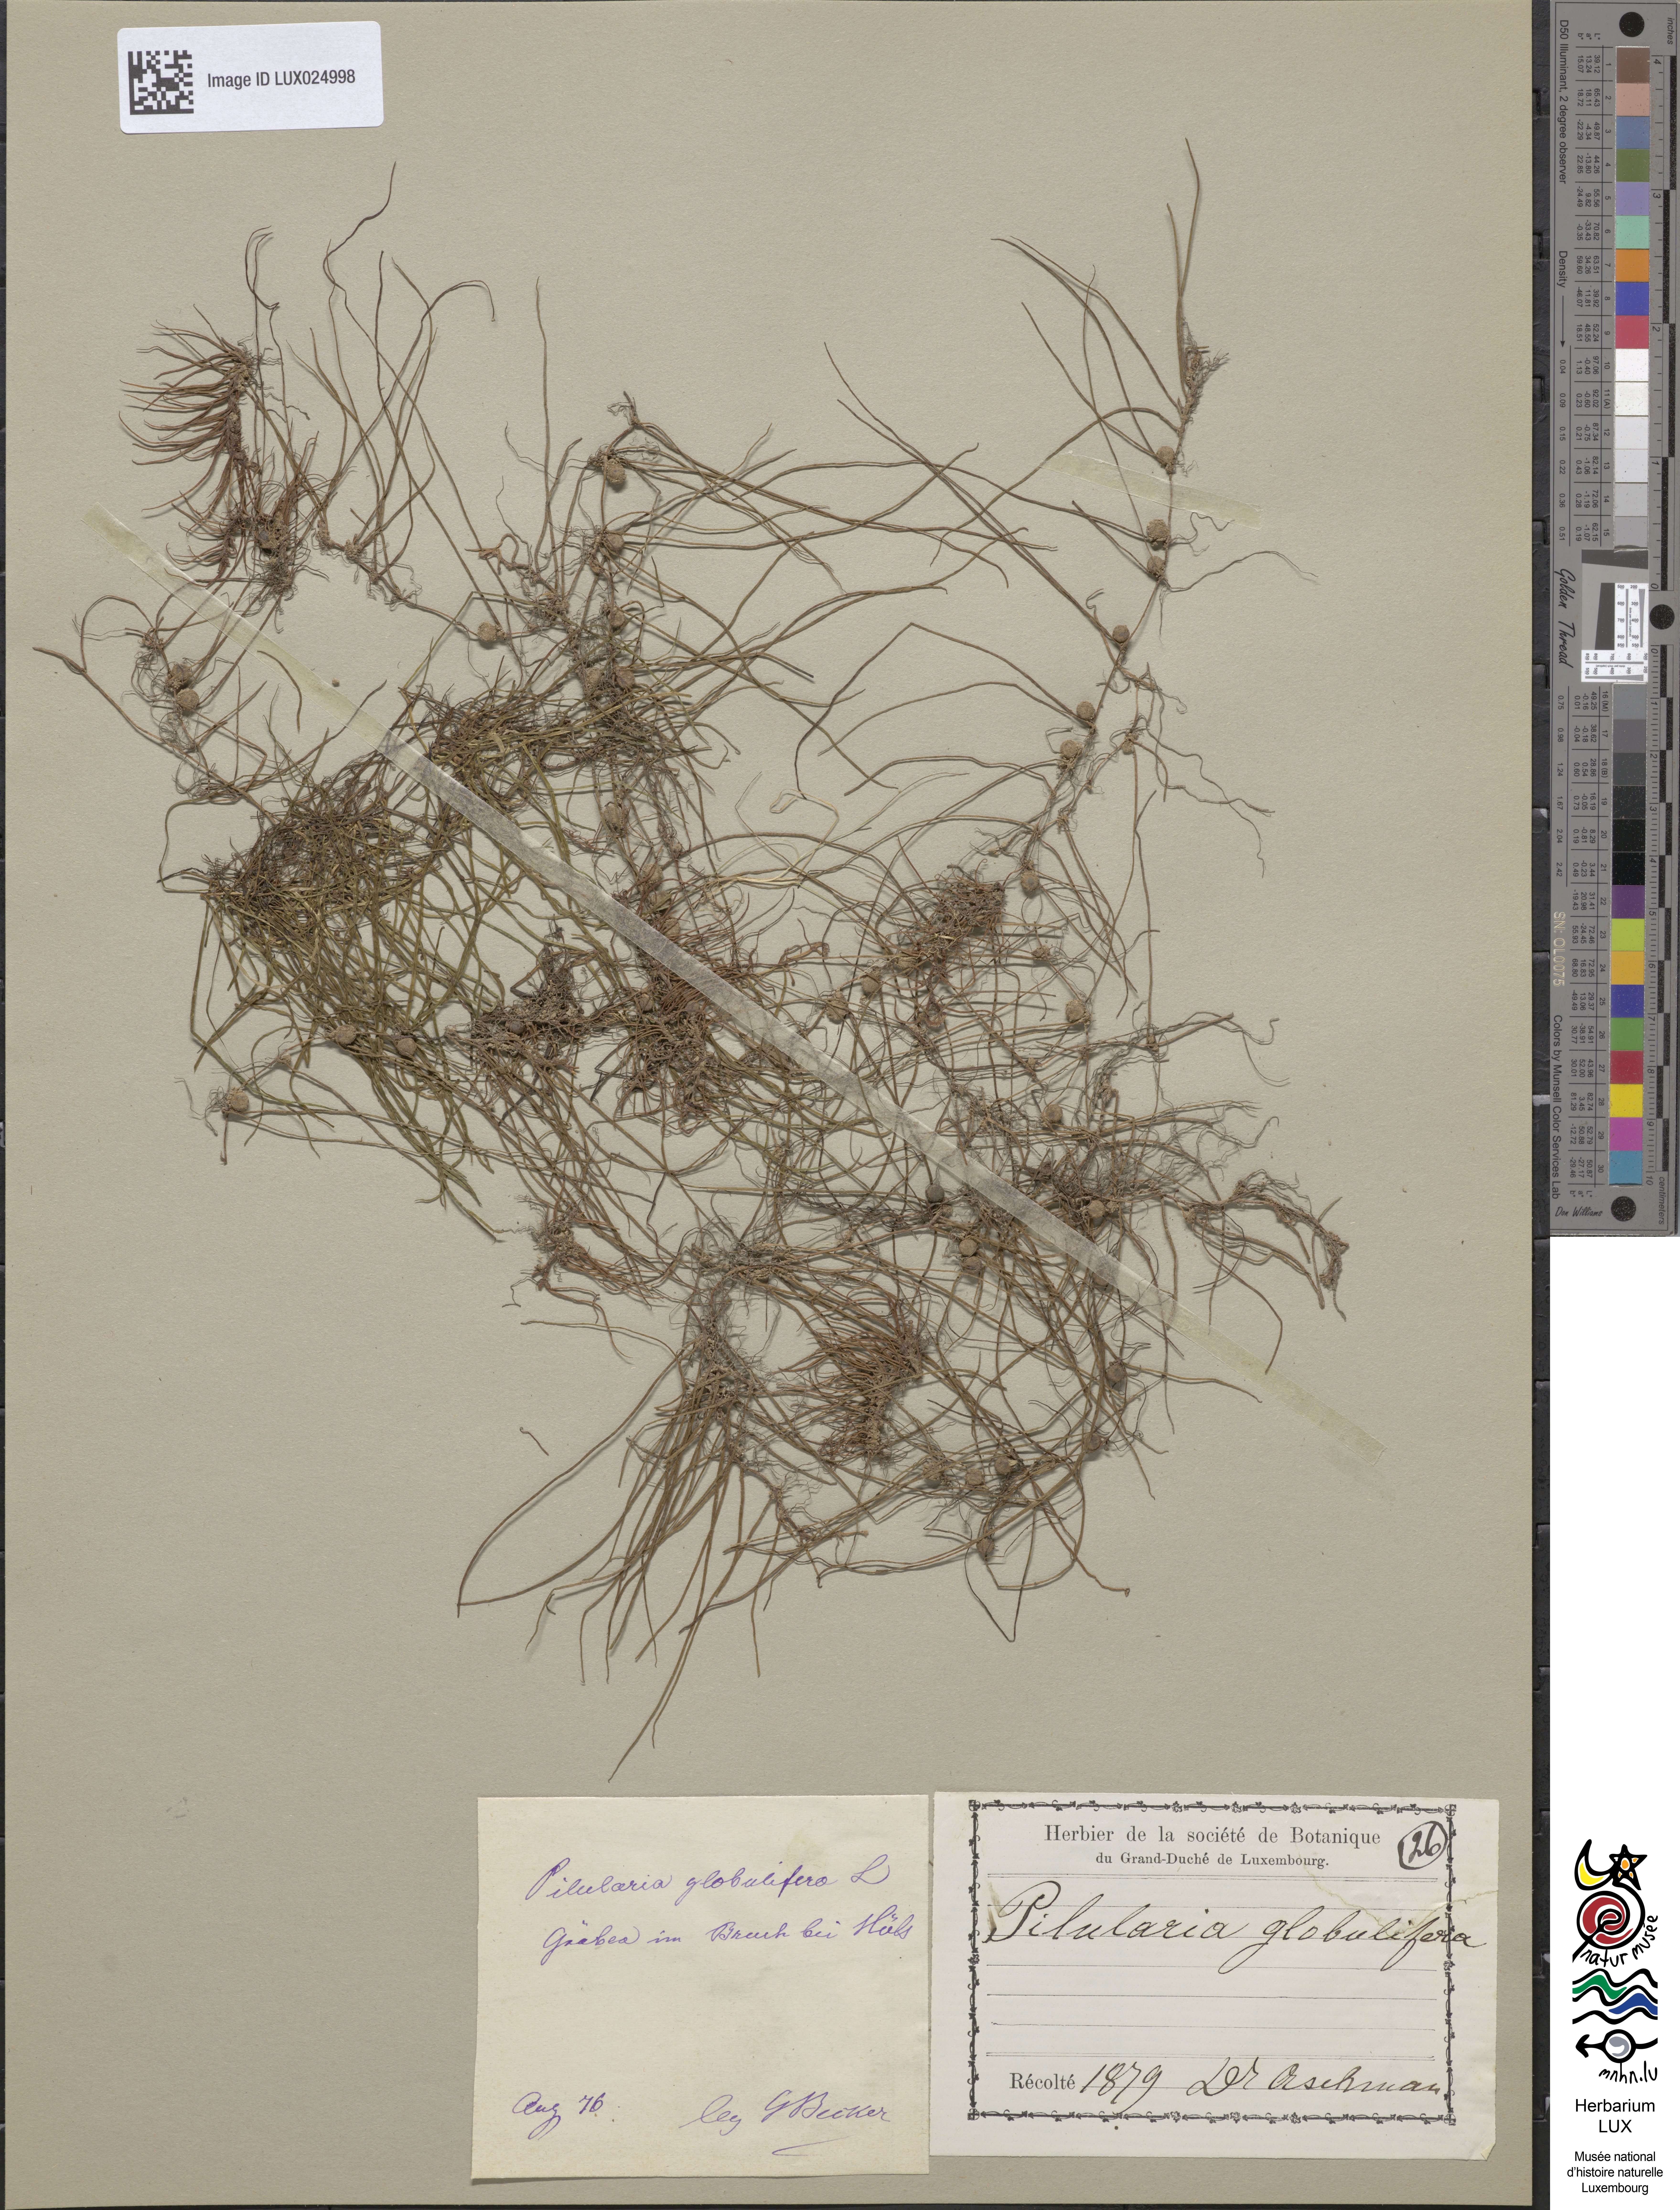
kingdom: Plantae
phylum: Tracheophyta
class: Polypodiopsida
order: Salviniales
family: Marsileaceae
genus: Pilularia
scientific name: Pilularia globulifera
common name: Pillwort
